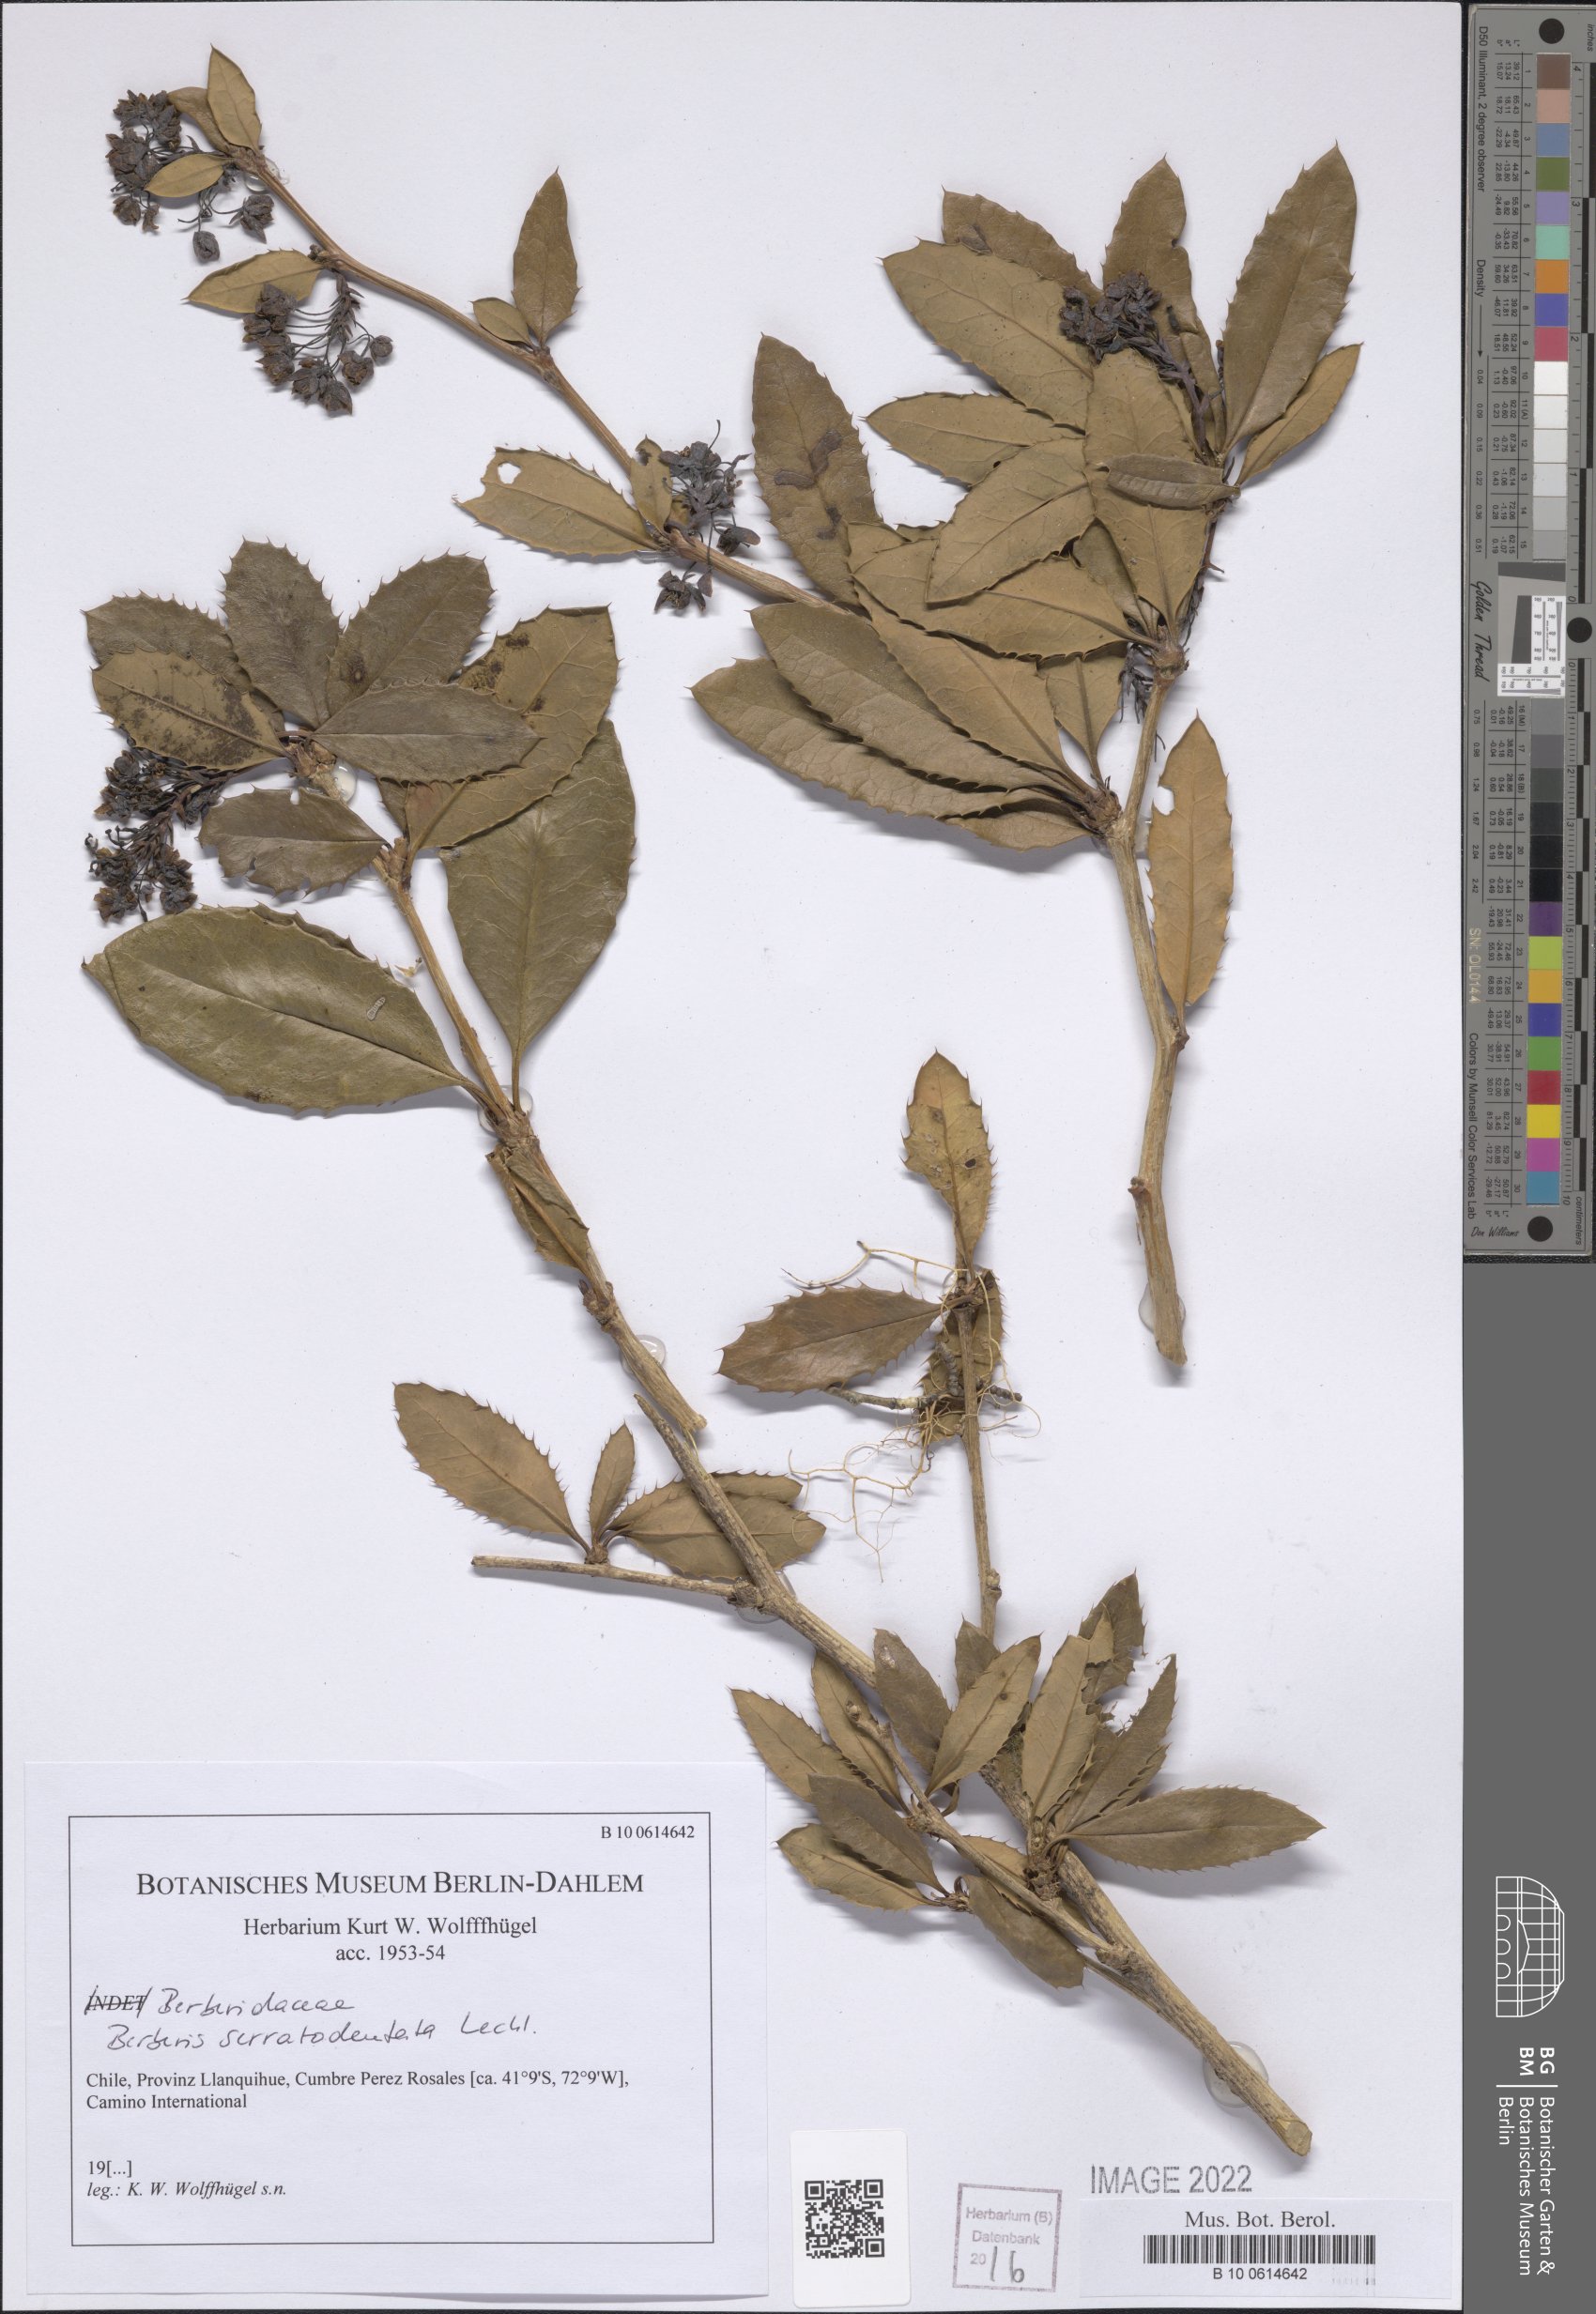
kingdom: Plantae
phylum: Tracheophyta
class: Magnoliopsida
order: Ranunculales
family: Berberidaceae
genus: Berberis
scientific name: Berberis serratodentata
